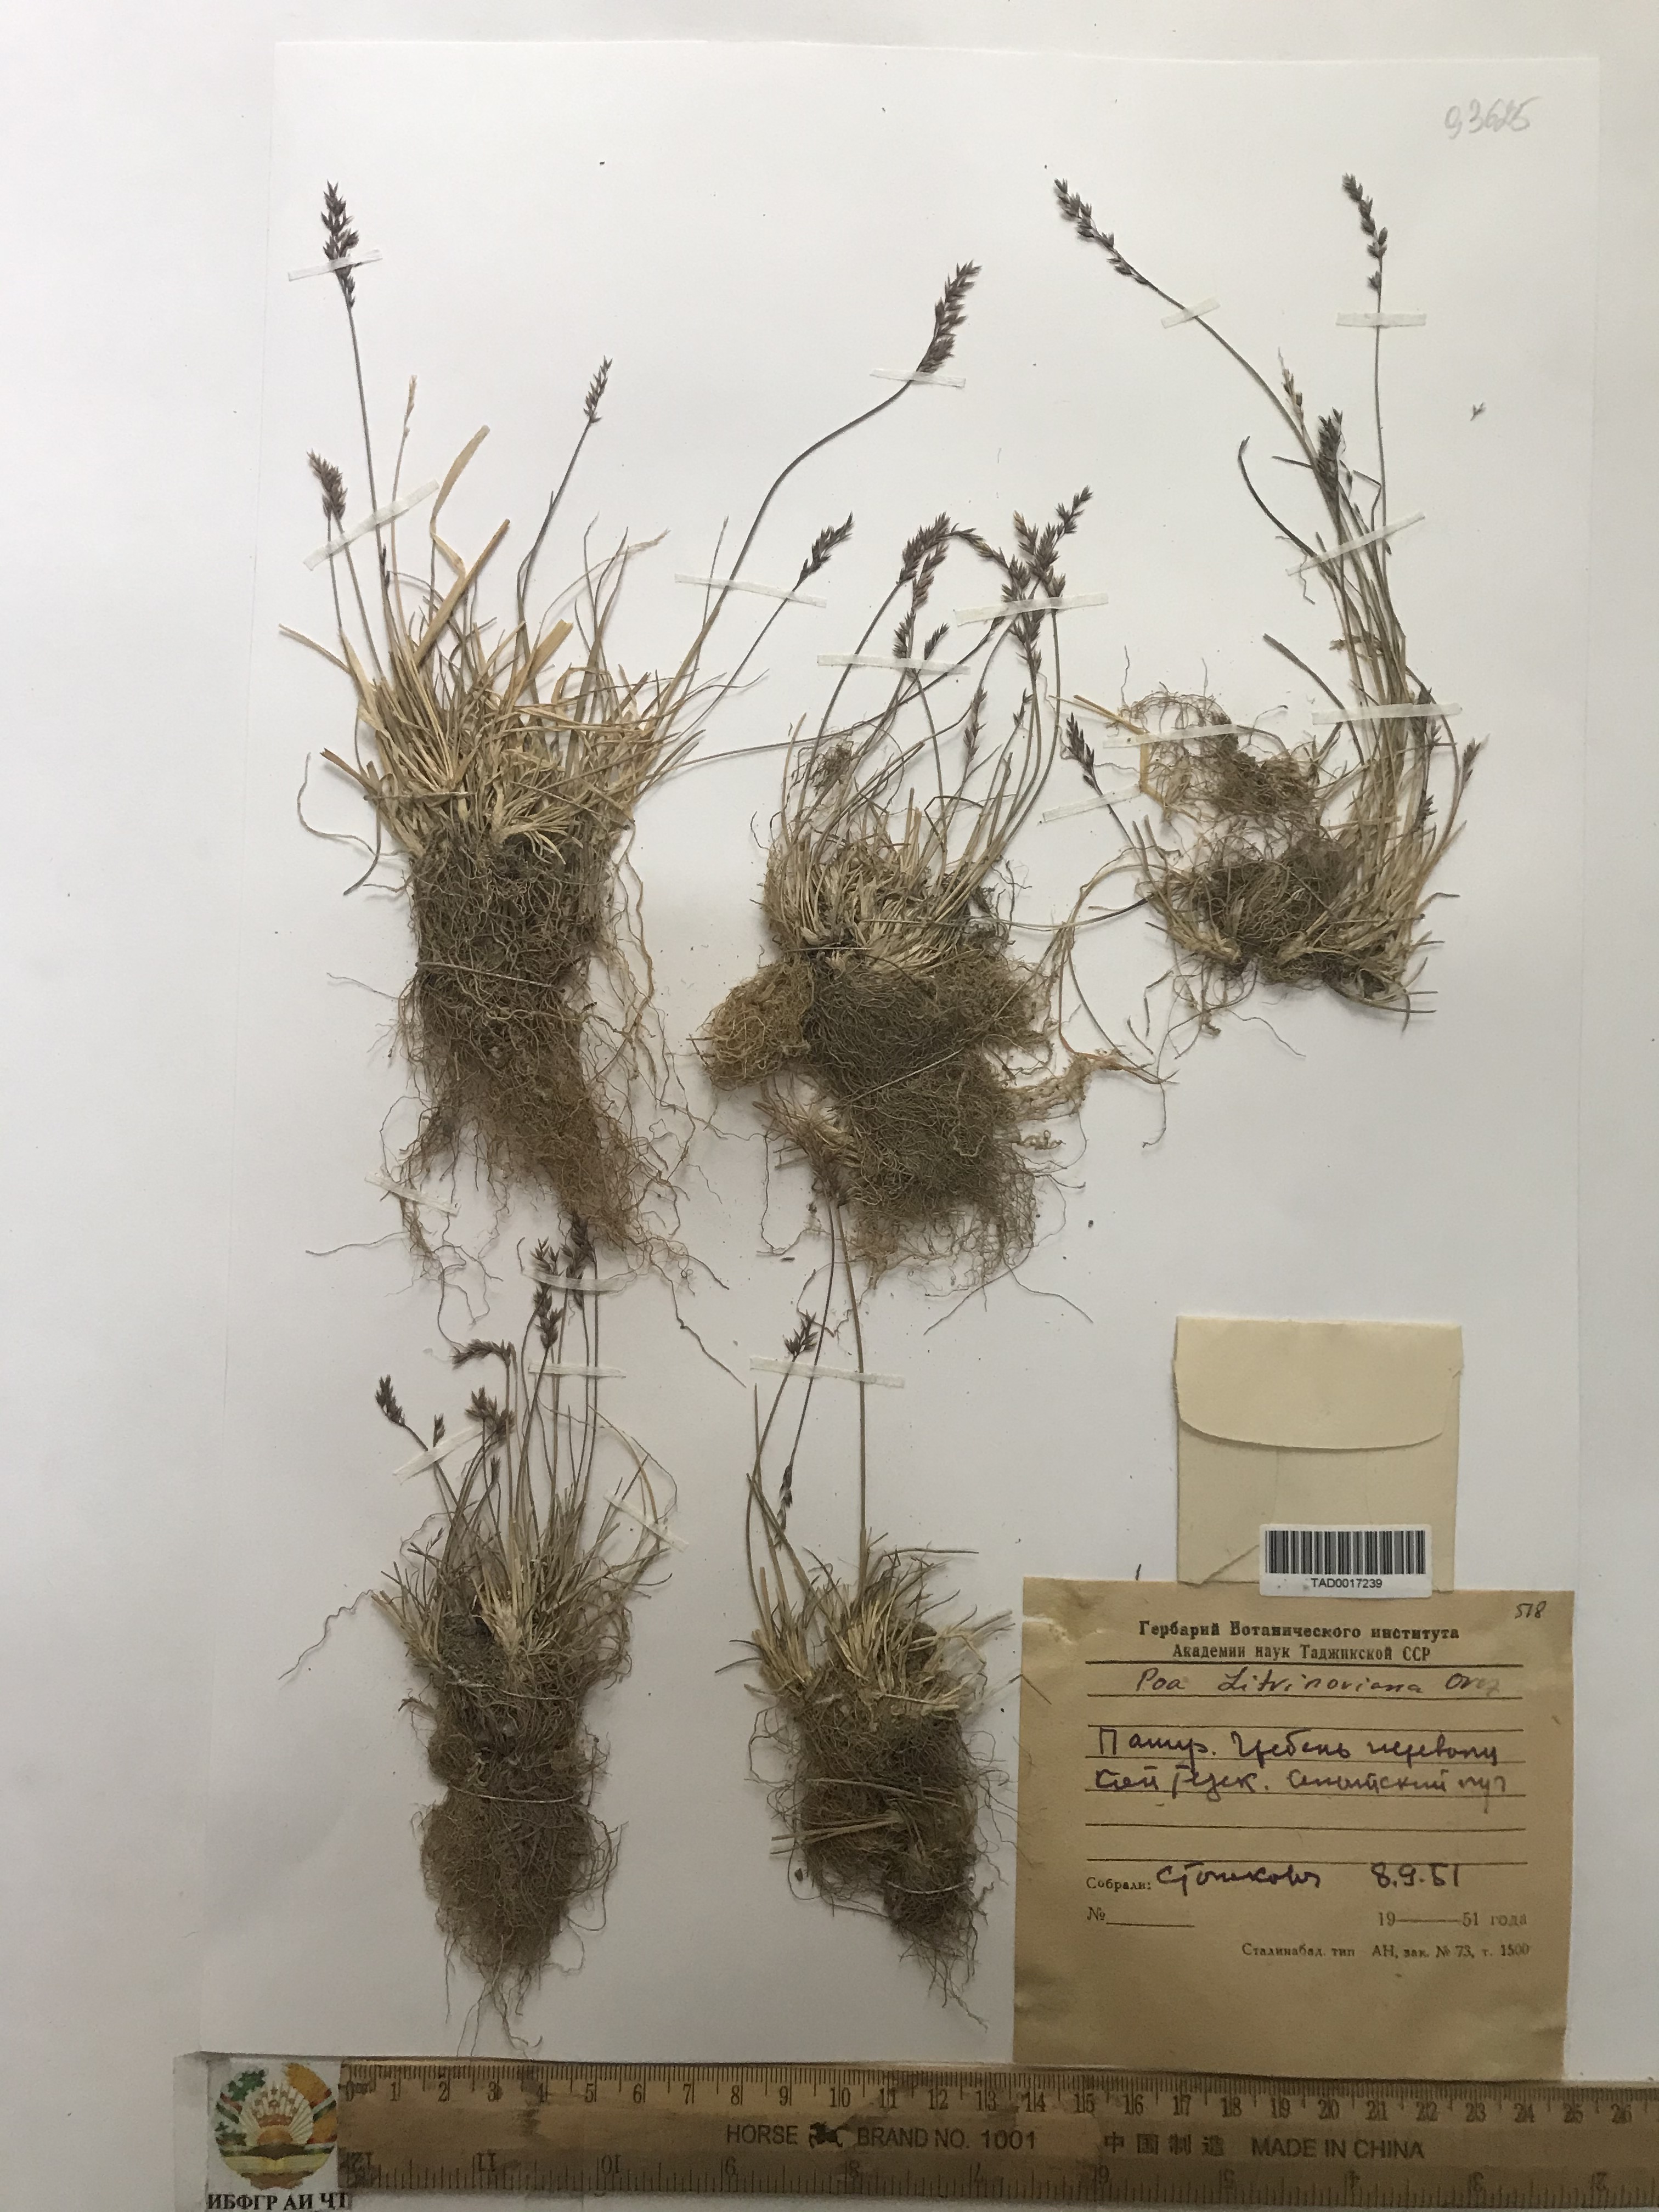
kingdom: Plantae
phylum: Tracheophyta
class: Liliopsida
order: Poales
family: Poaceae
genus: Poa
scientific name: Poa glauca
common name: Glaucous bluegrass
